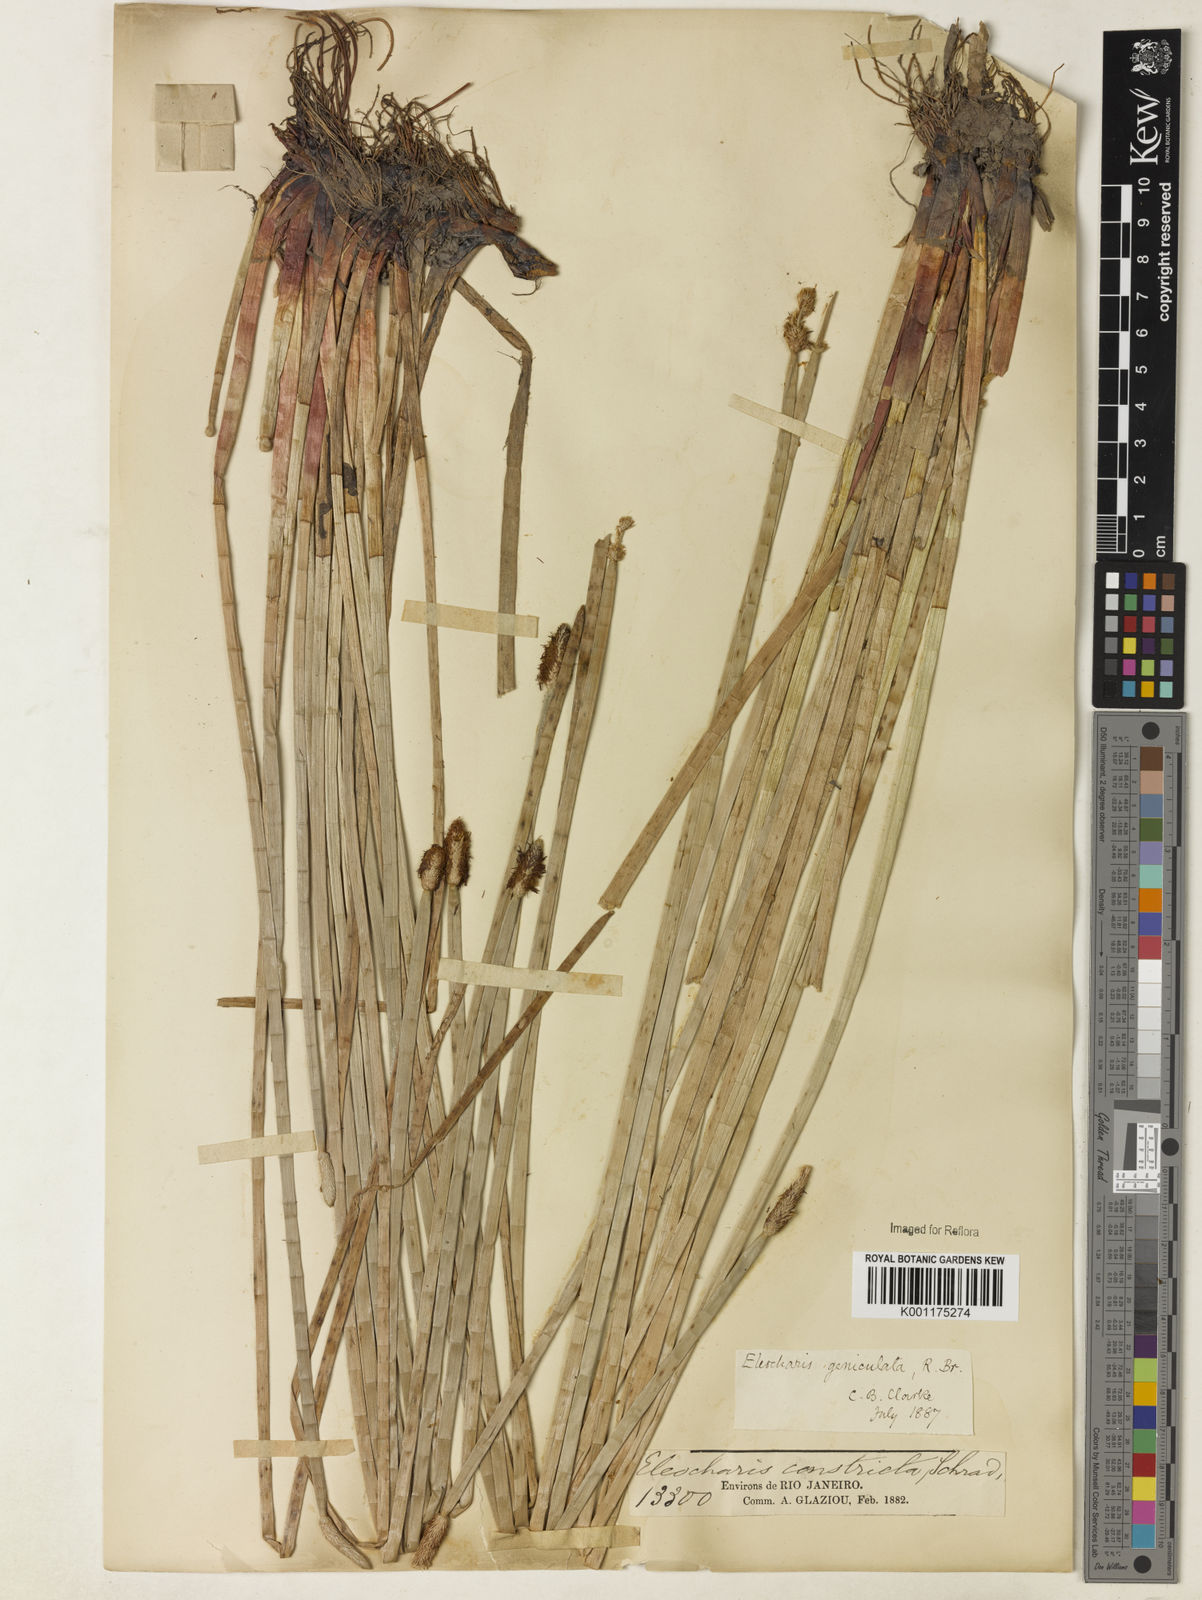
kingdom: Plantae
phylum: Tracheophyta
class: Liliopsida
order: Poales
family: Cyperaceae
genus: Eleocharis
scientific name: Eleocharis geniculata
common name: Canada spikesedge
